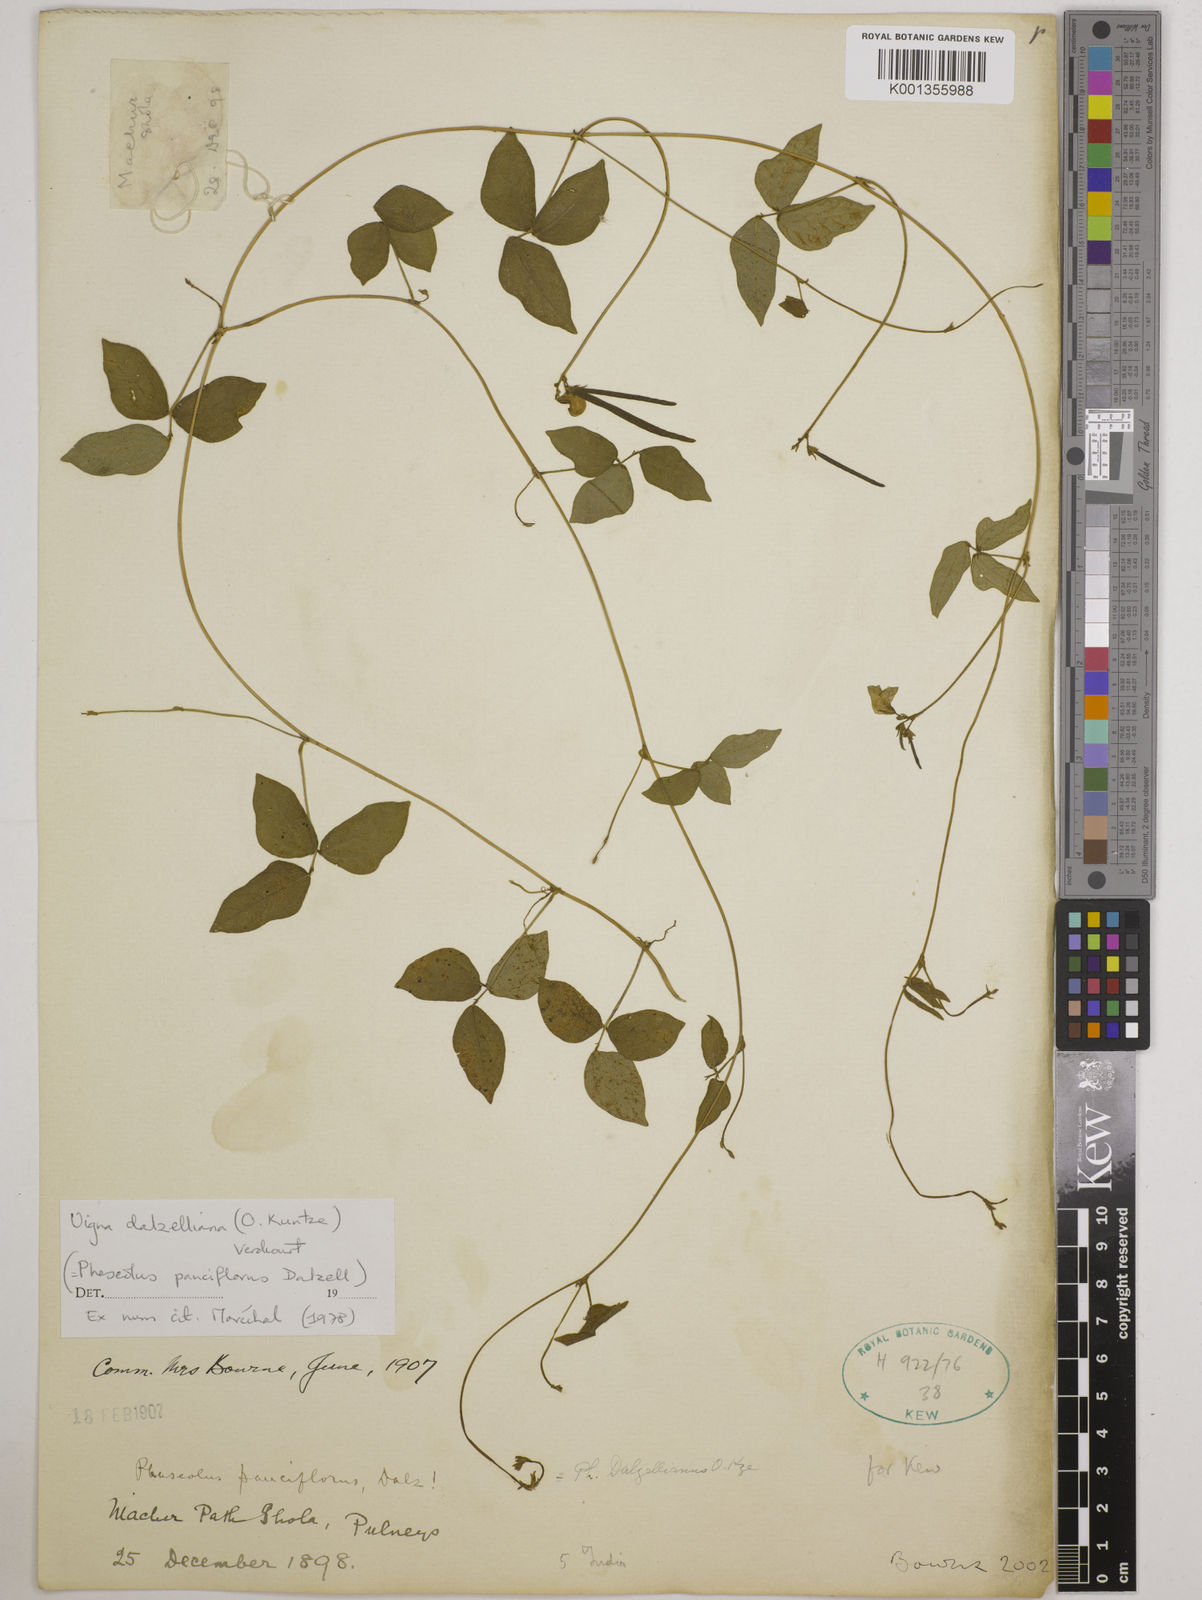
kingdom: Plantae
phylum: Tracheophyta
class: Magnoliopsida
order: Fabales
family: Fabaceae
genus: Vigna
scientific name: Vigna dalzelliana
